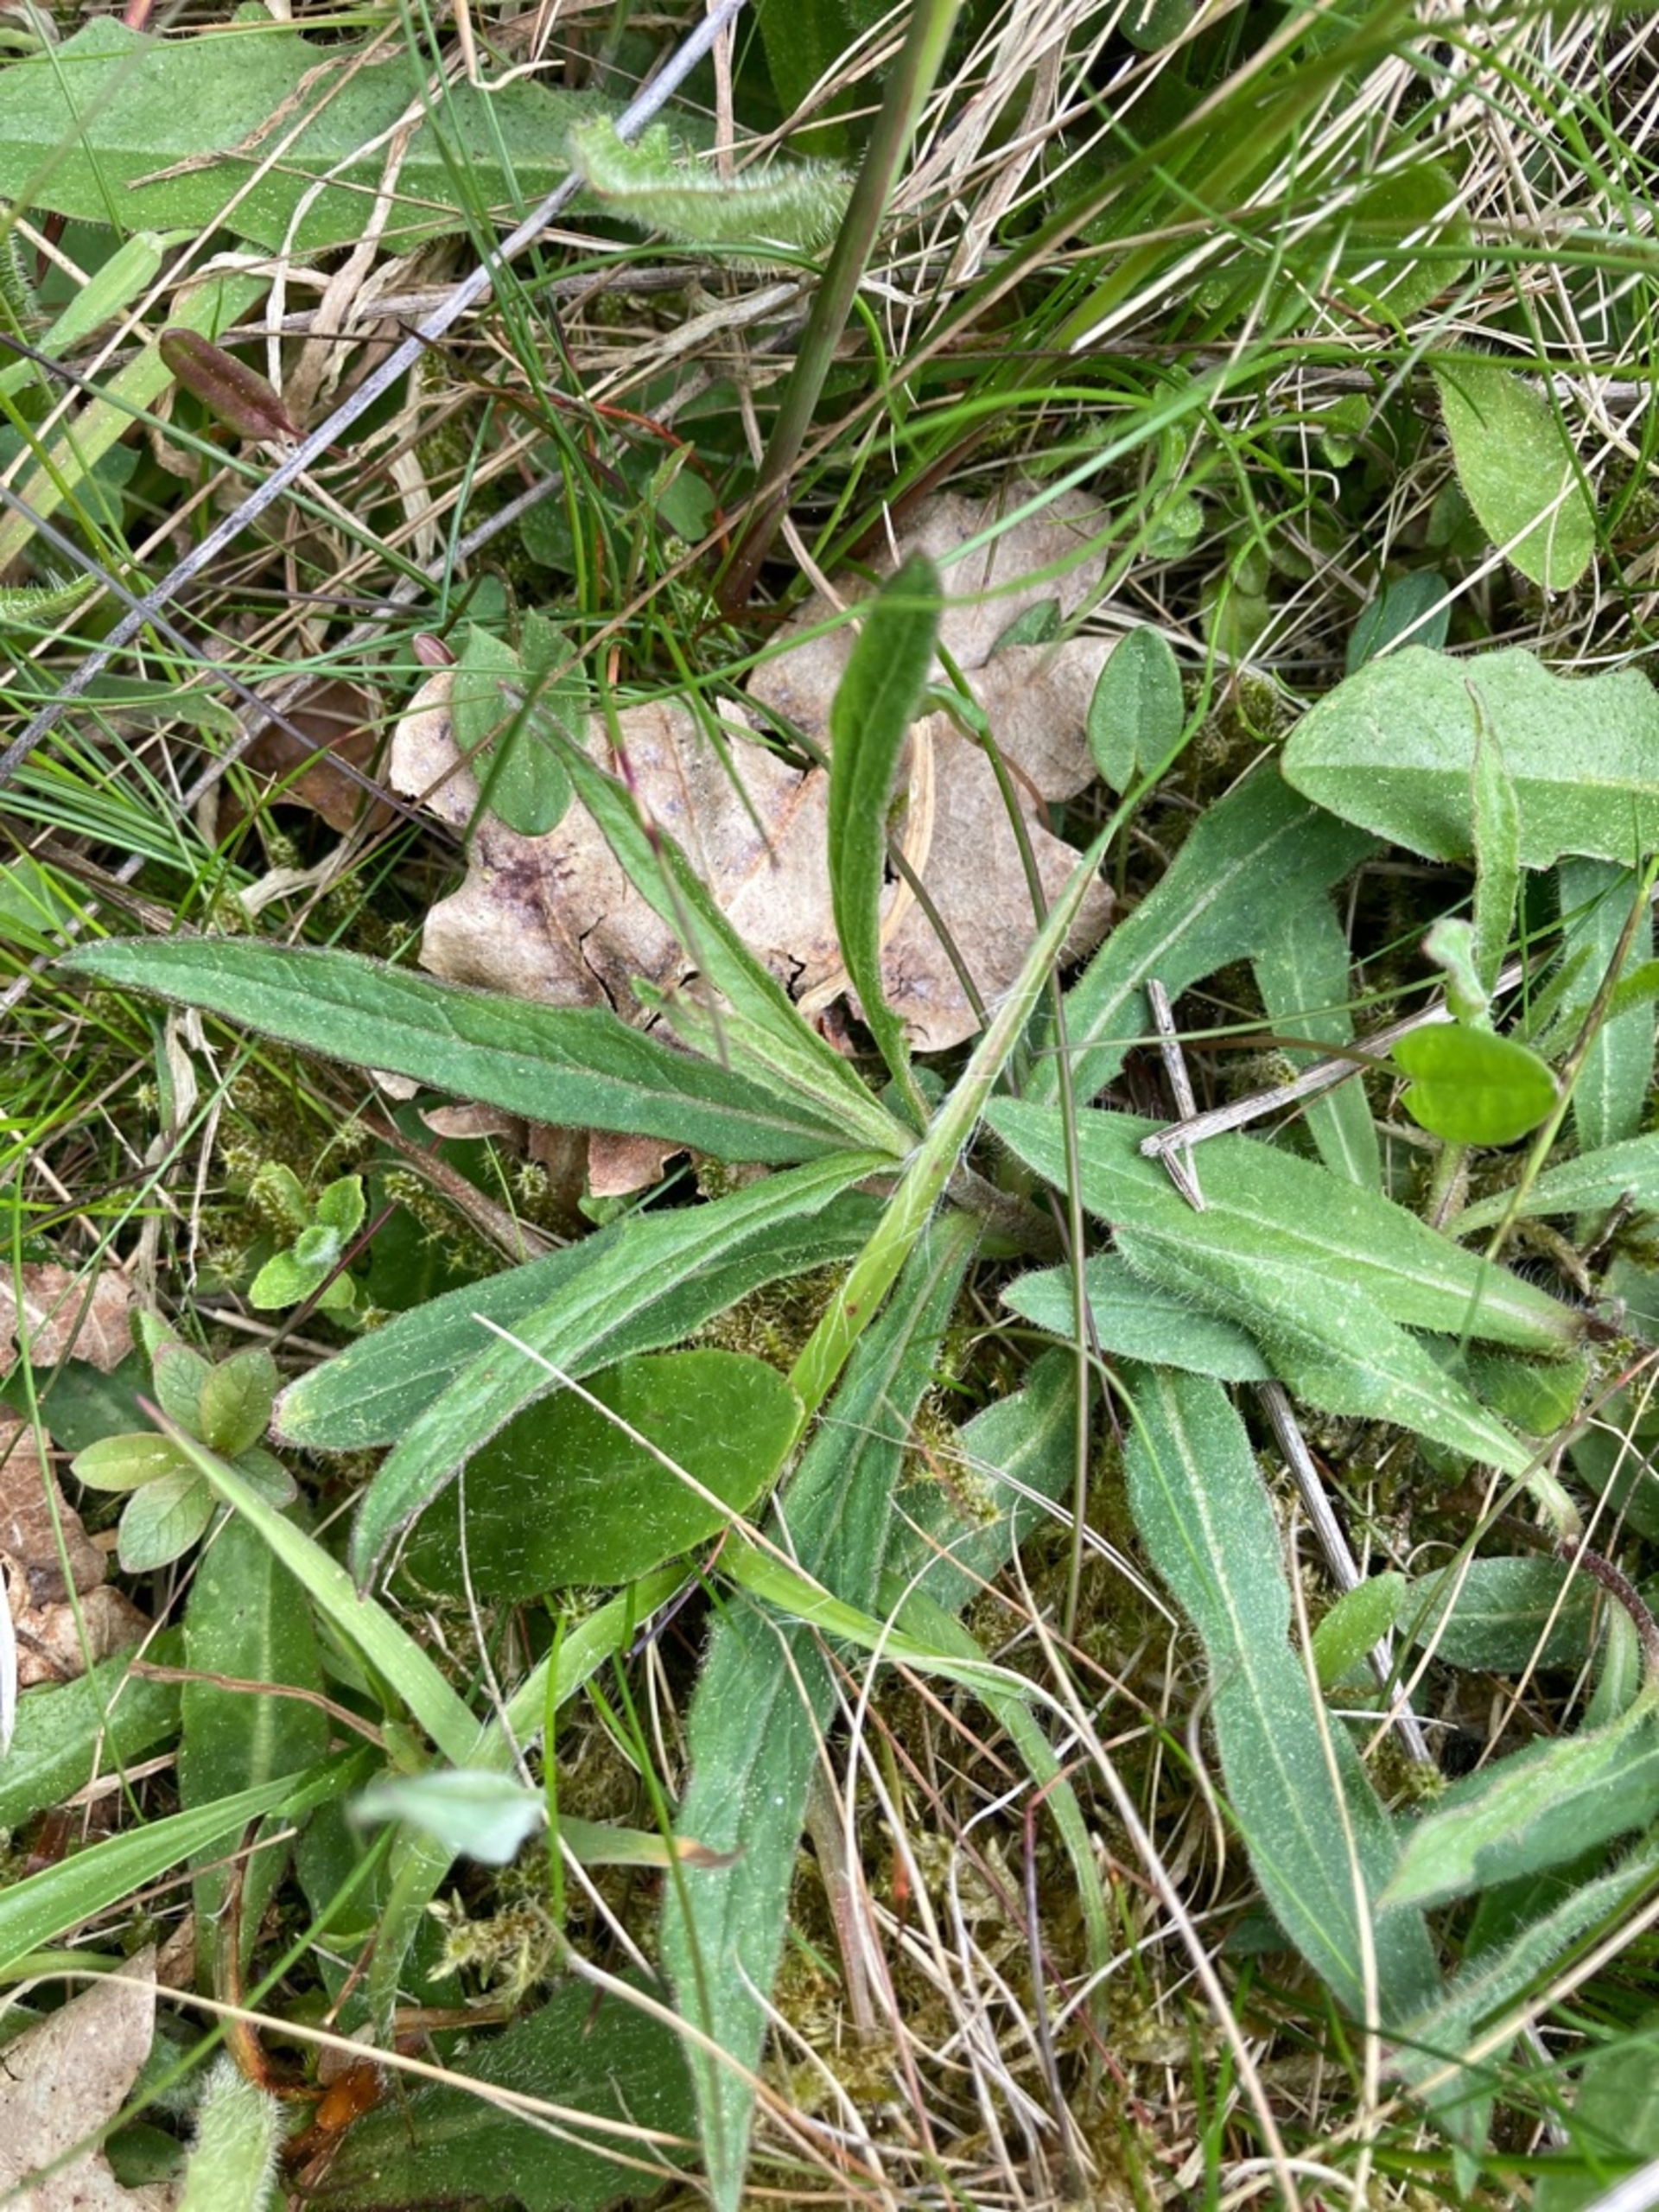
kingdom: Plantae
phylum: Tracheophyta
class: Magnoliopsida
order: Asterales
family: Asteraceae
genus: Hieracium
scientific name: Hieracium umbellatum
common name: Smalbladet høgeurt
